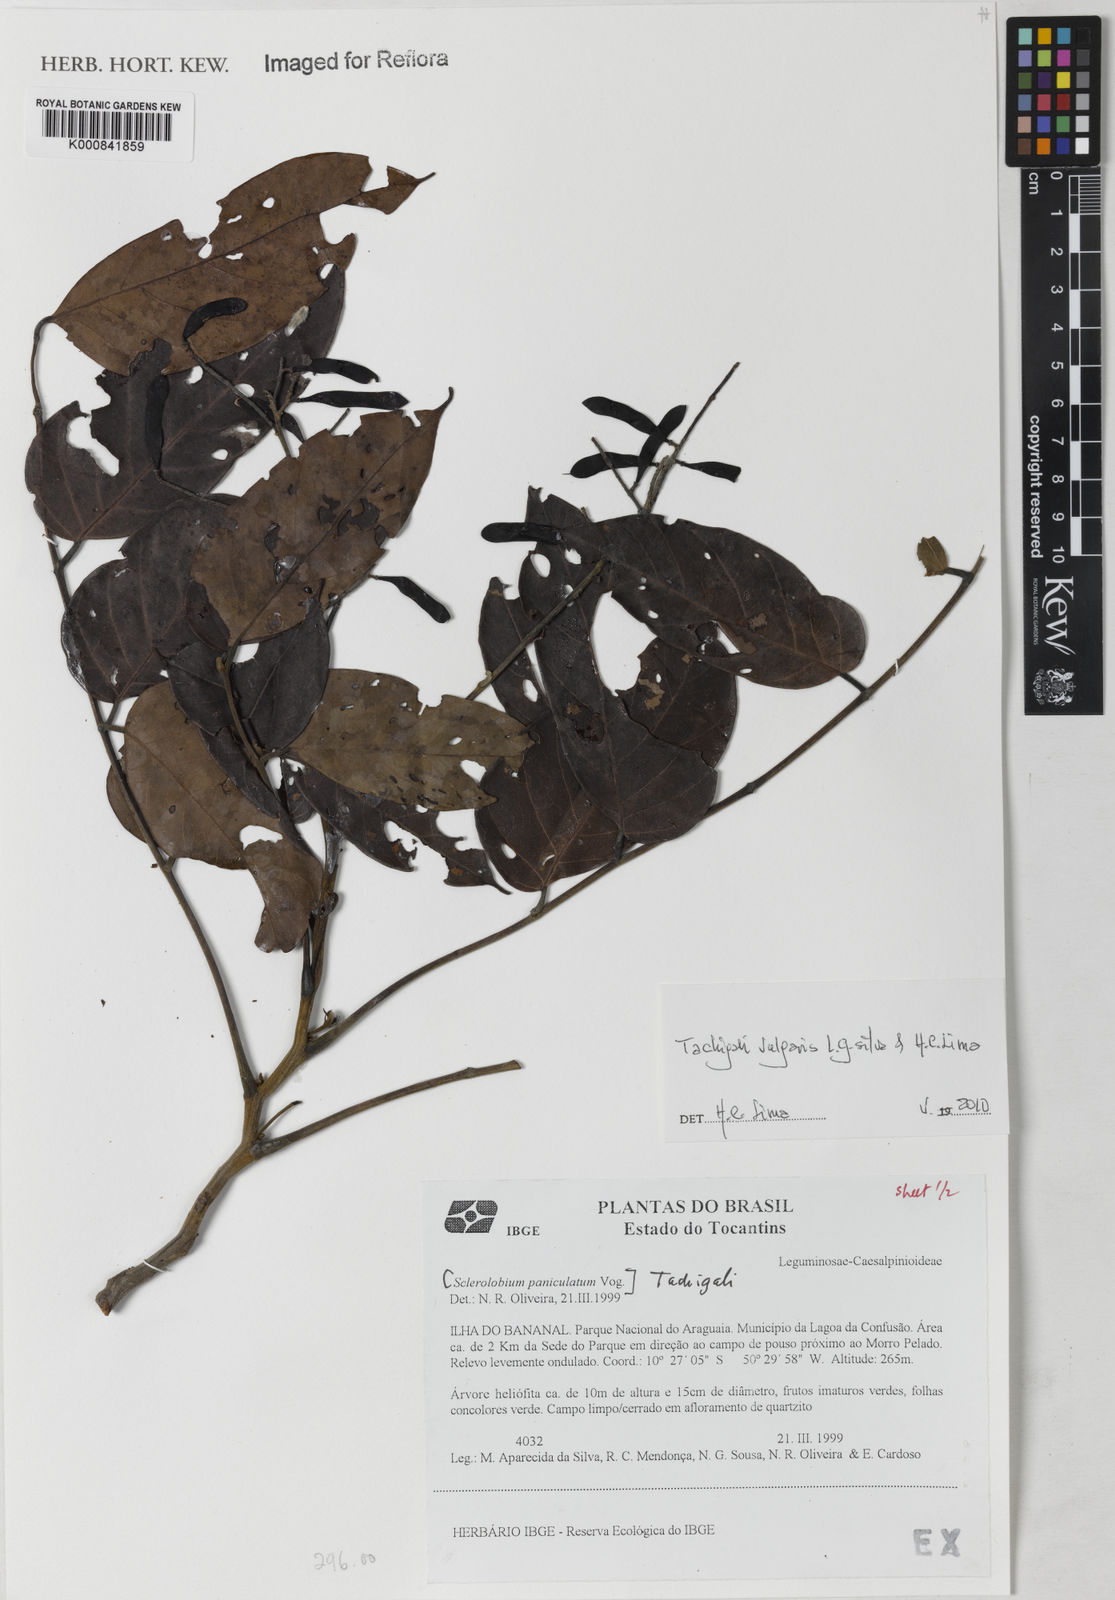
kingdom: Plantae
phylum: Tracheophyta
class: Magnoliopsida
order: Fabales
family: Fabaceae
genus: Tachigali
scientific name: Tachigali vulgaris
